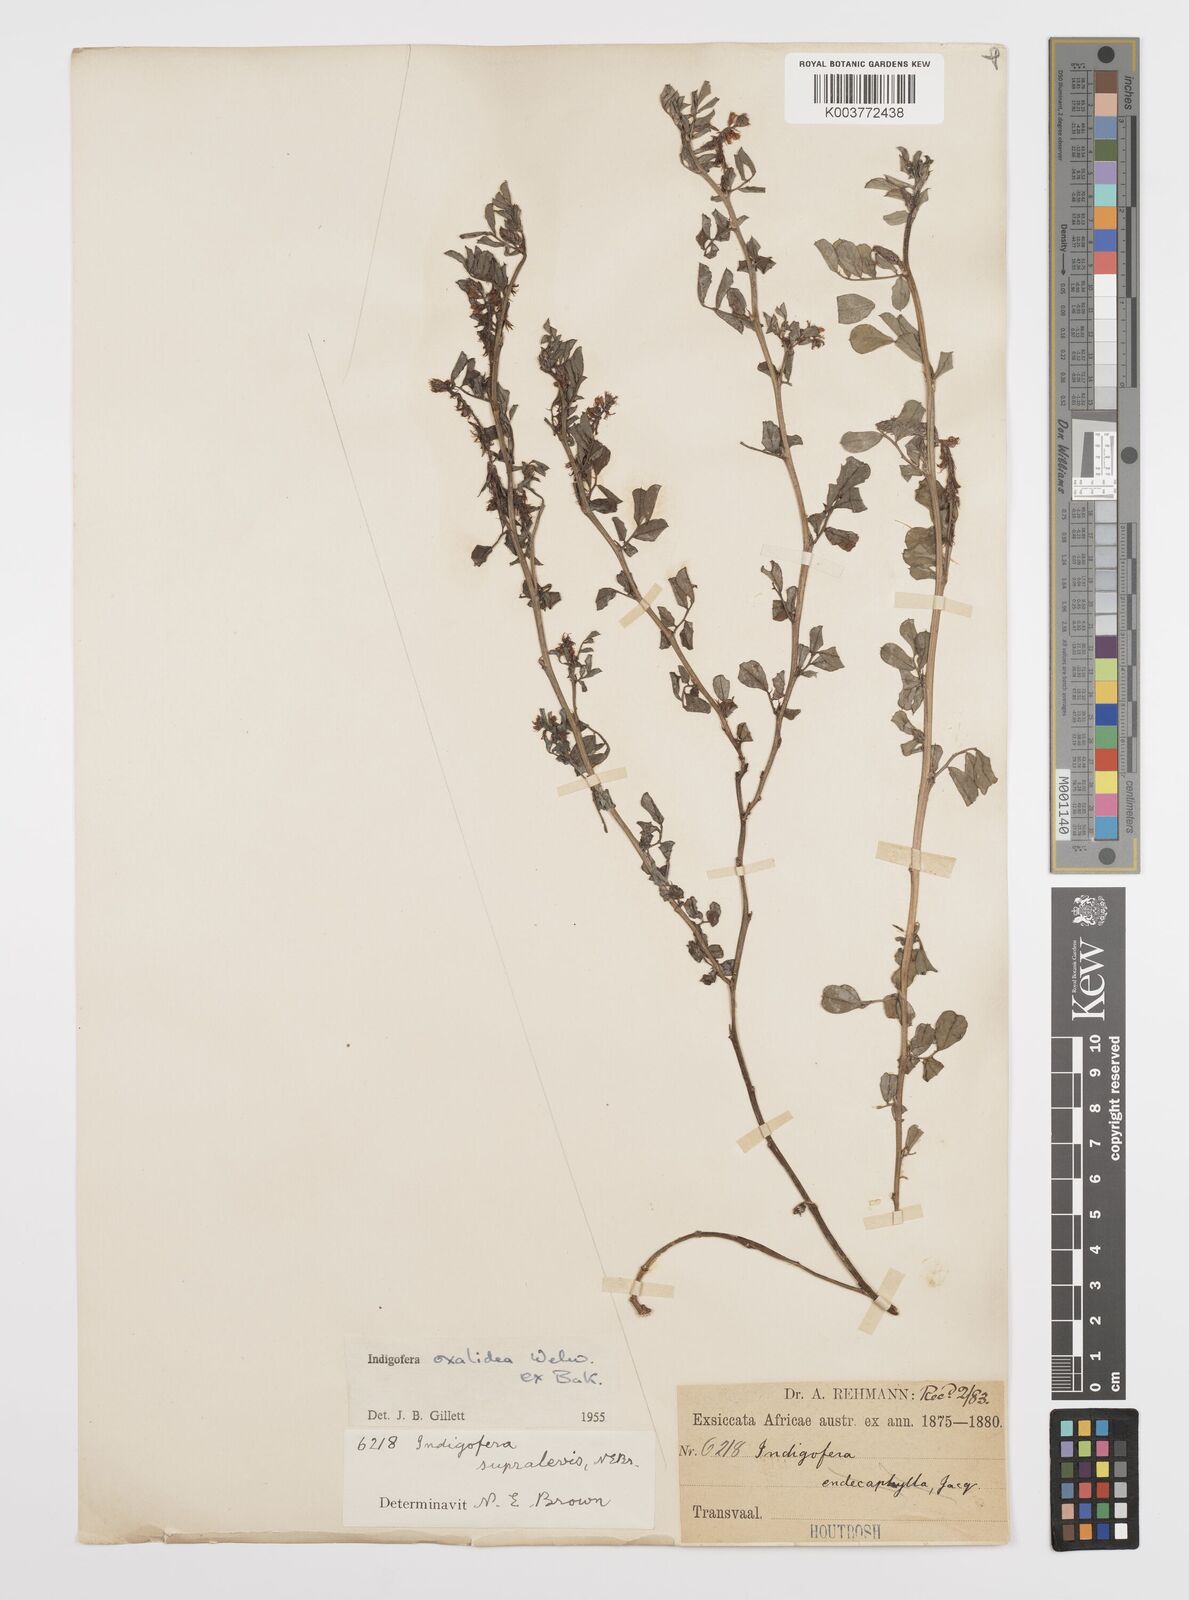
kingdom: Plantae
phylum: Tracheophyta
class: Magnoliopsida
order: Fabales
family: Fabaceae
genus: Indigofera
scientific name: Indigofera oxalidea
